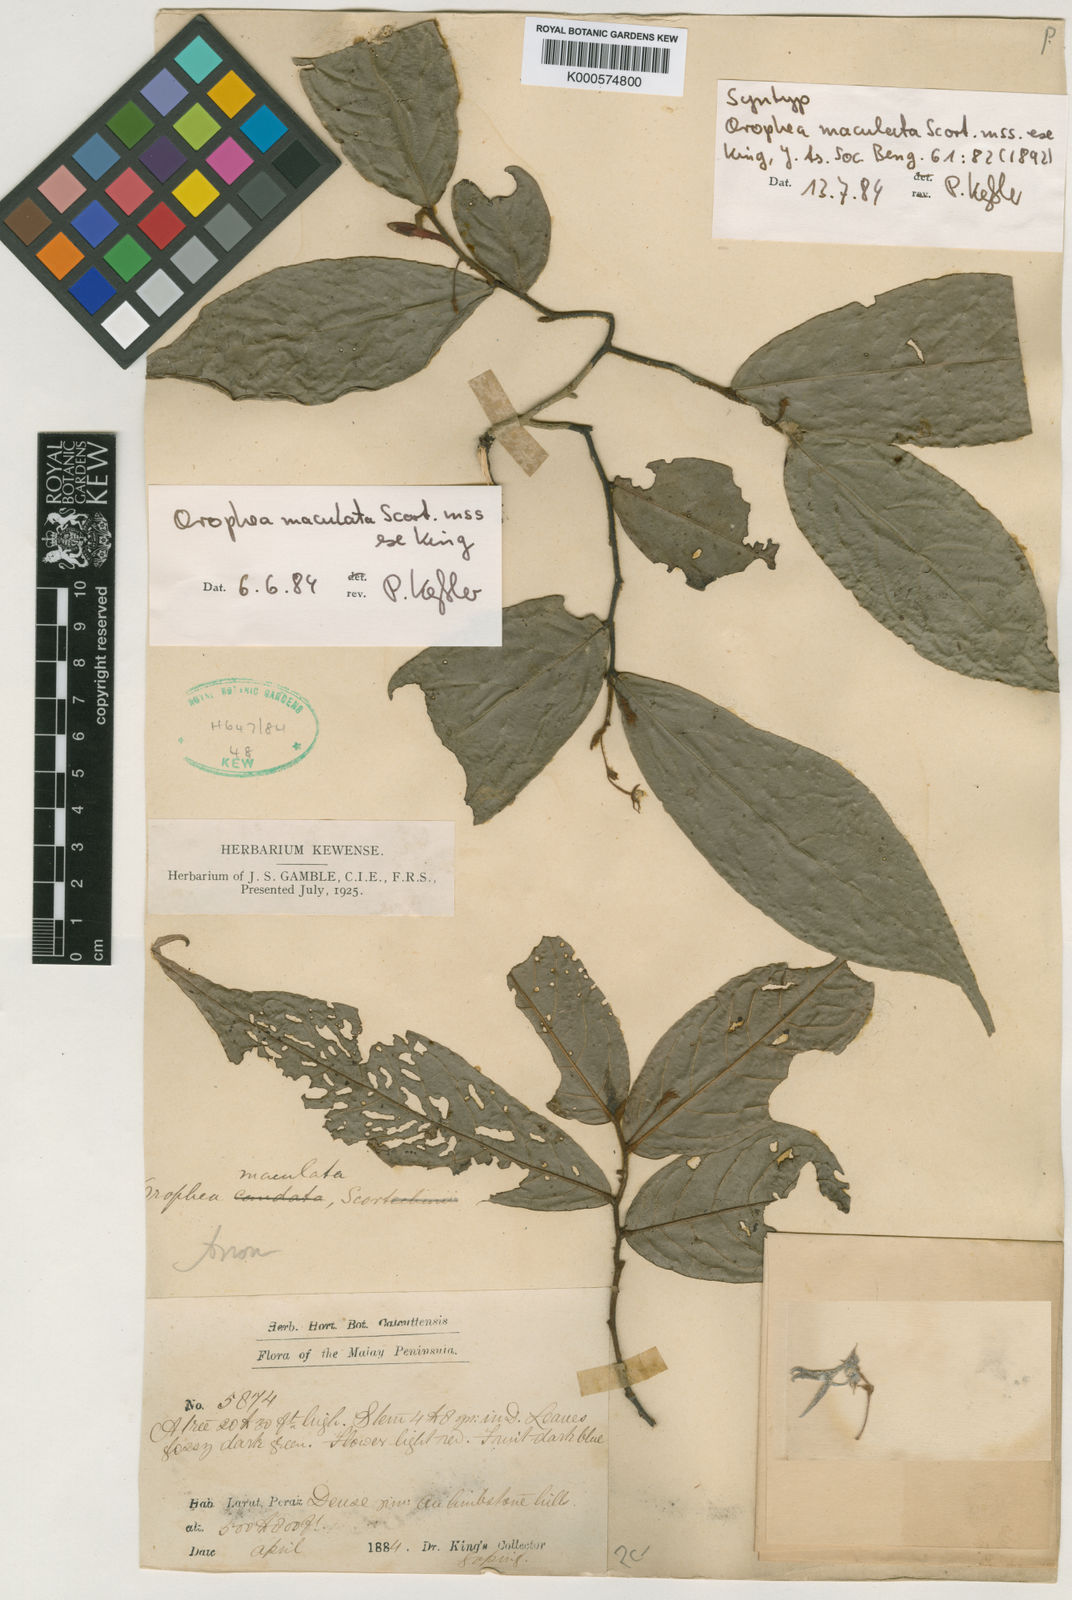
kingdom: Plantae
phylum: Tracheophyta
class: Magnoliopsida
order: Magnoliales
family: Annonaceae
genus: Orophea
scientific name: Orophea maculata
